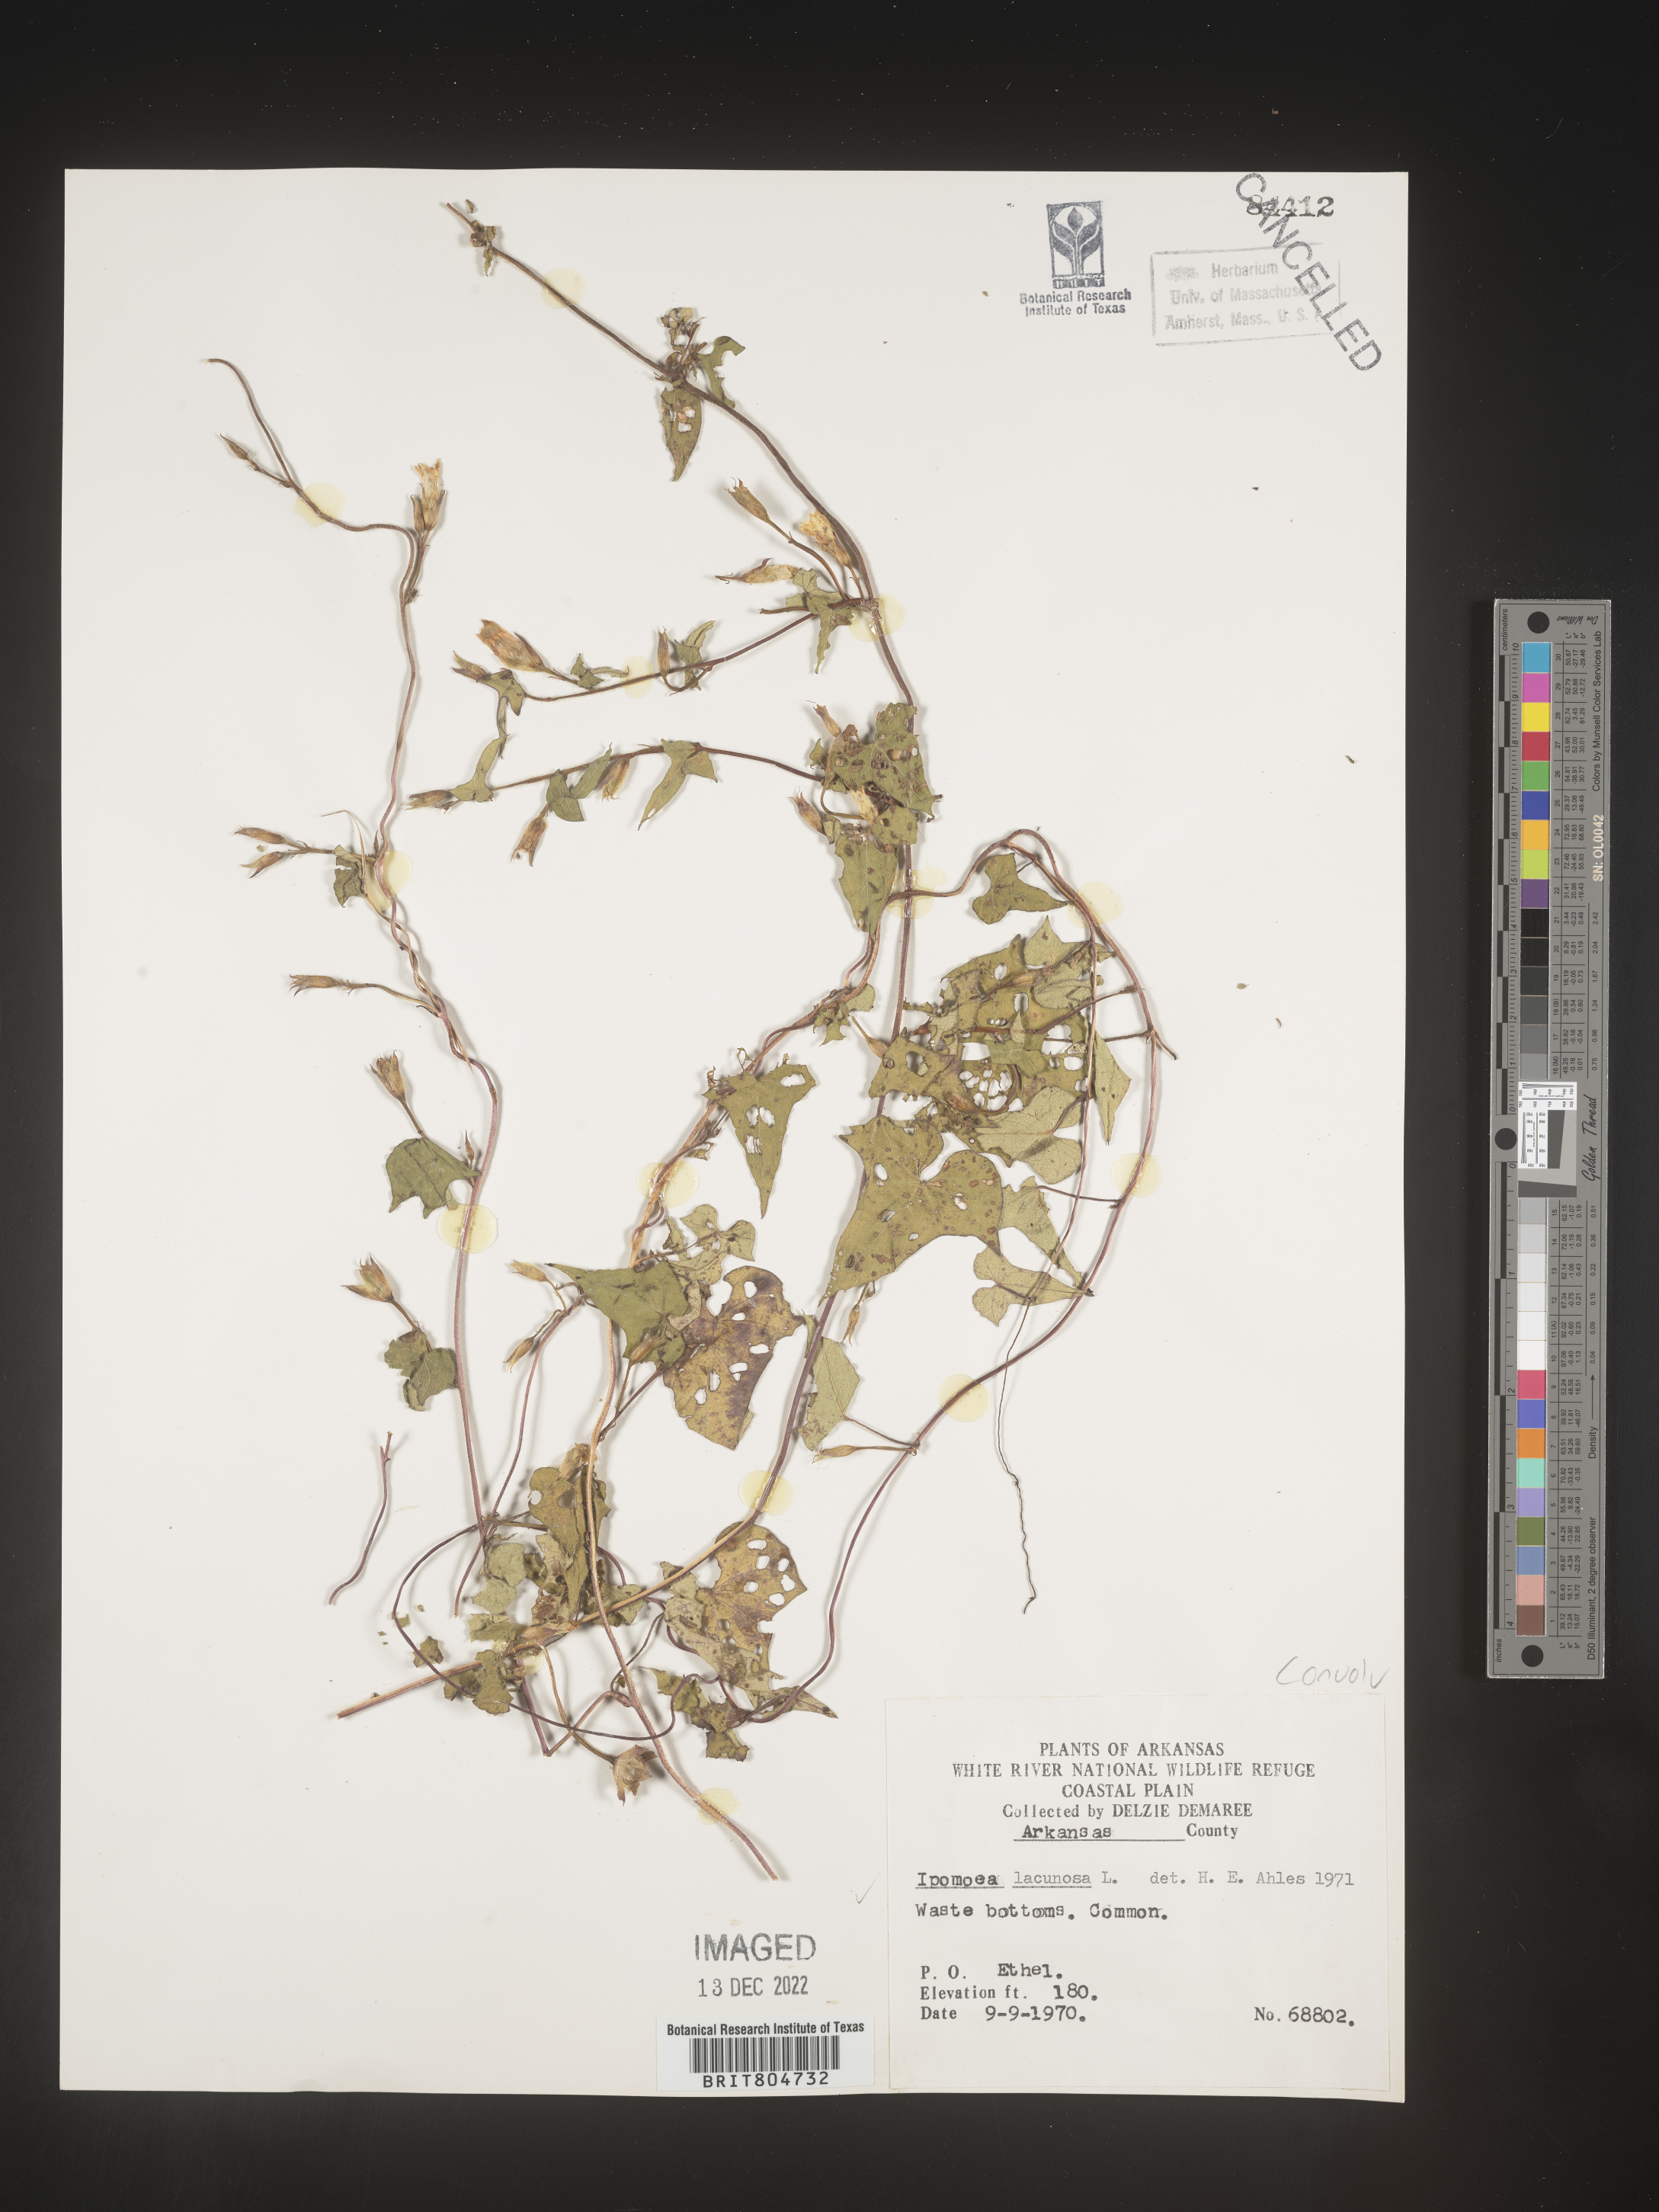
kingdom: Plantae
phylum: Tracheophyta
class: Magnoliopsida
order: Solanales
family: Convolvulaceae
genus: Ipomoea
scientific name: Ipomoea lacunosa
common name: White morning-glory
